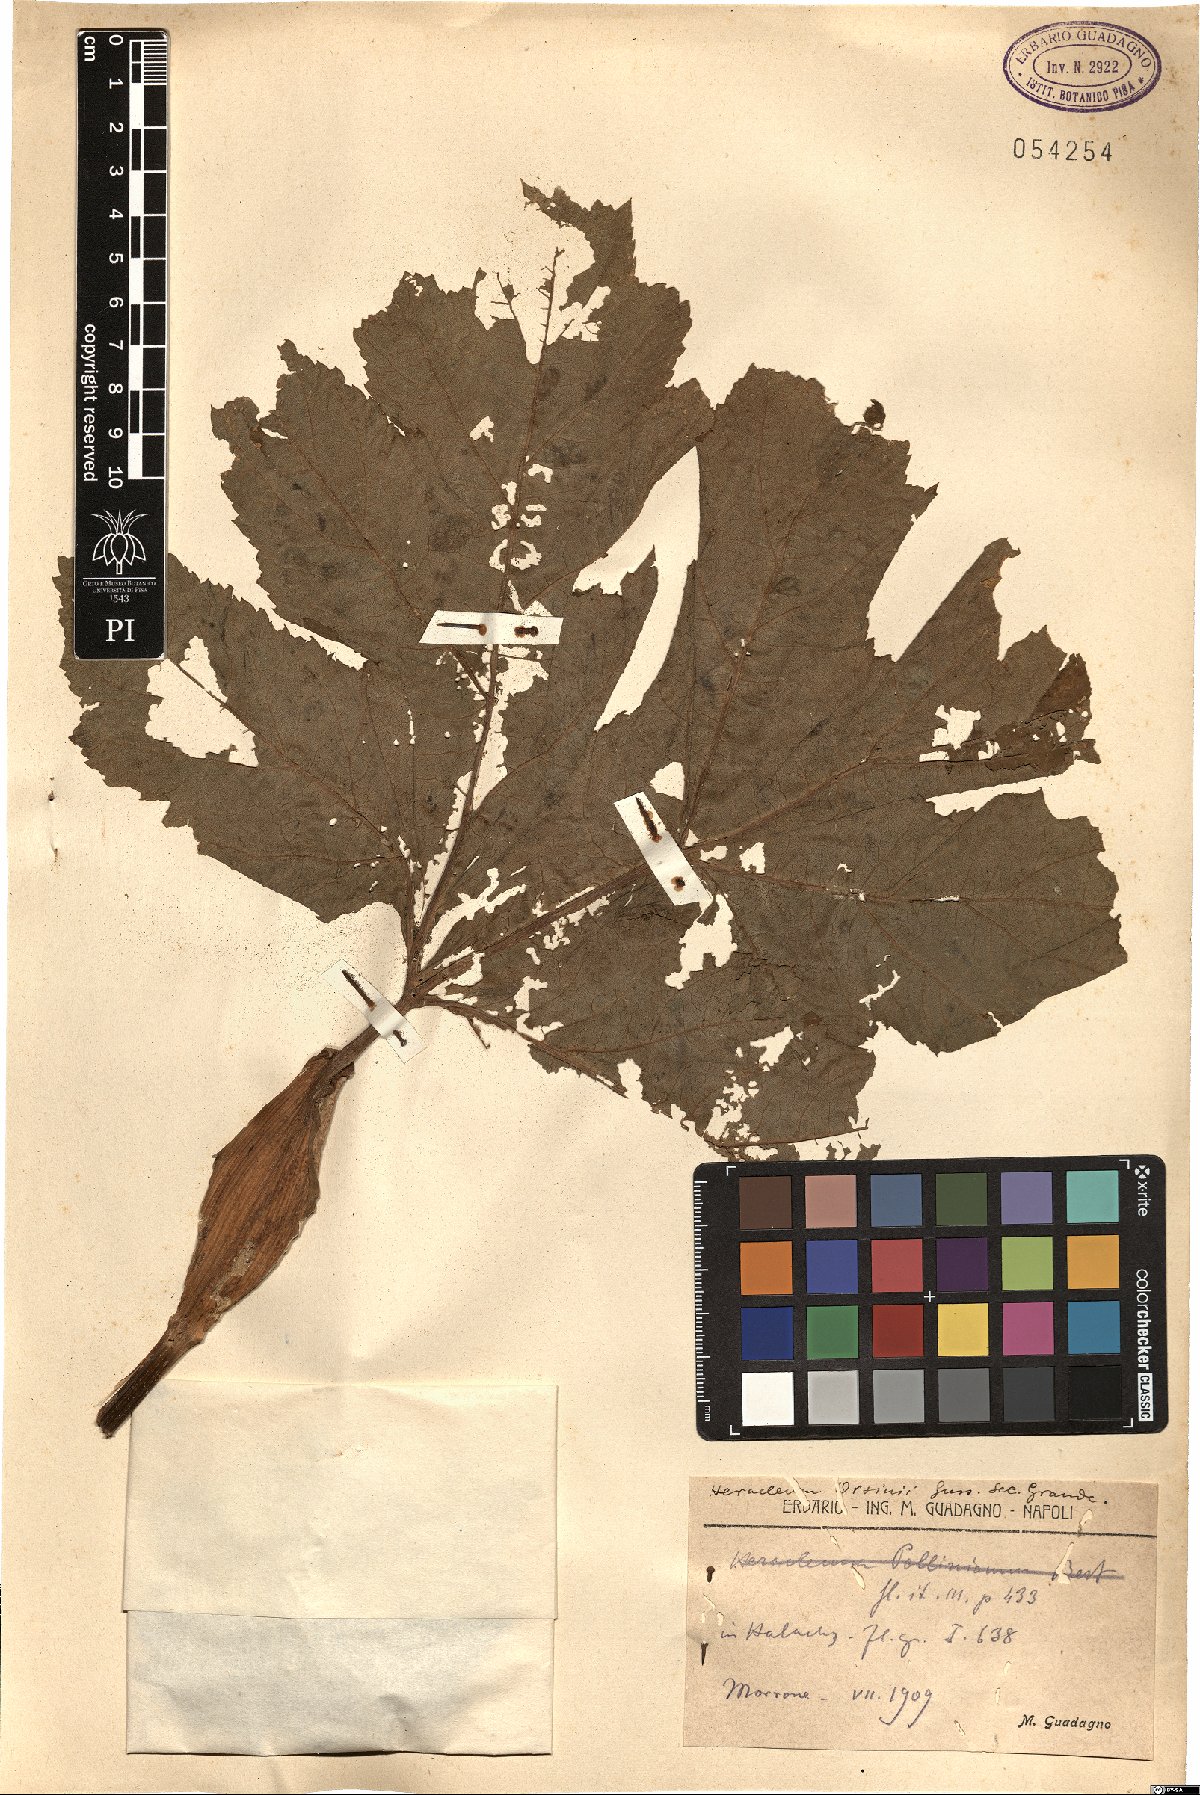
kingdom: Plantae
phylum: Tracheophyta
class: Magnoliopsida
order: Apiales
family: Apiaceae
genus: Heracleum
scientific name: Heracleum sphondylium
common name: Hogweed
